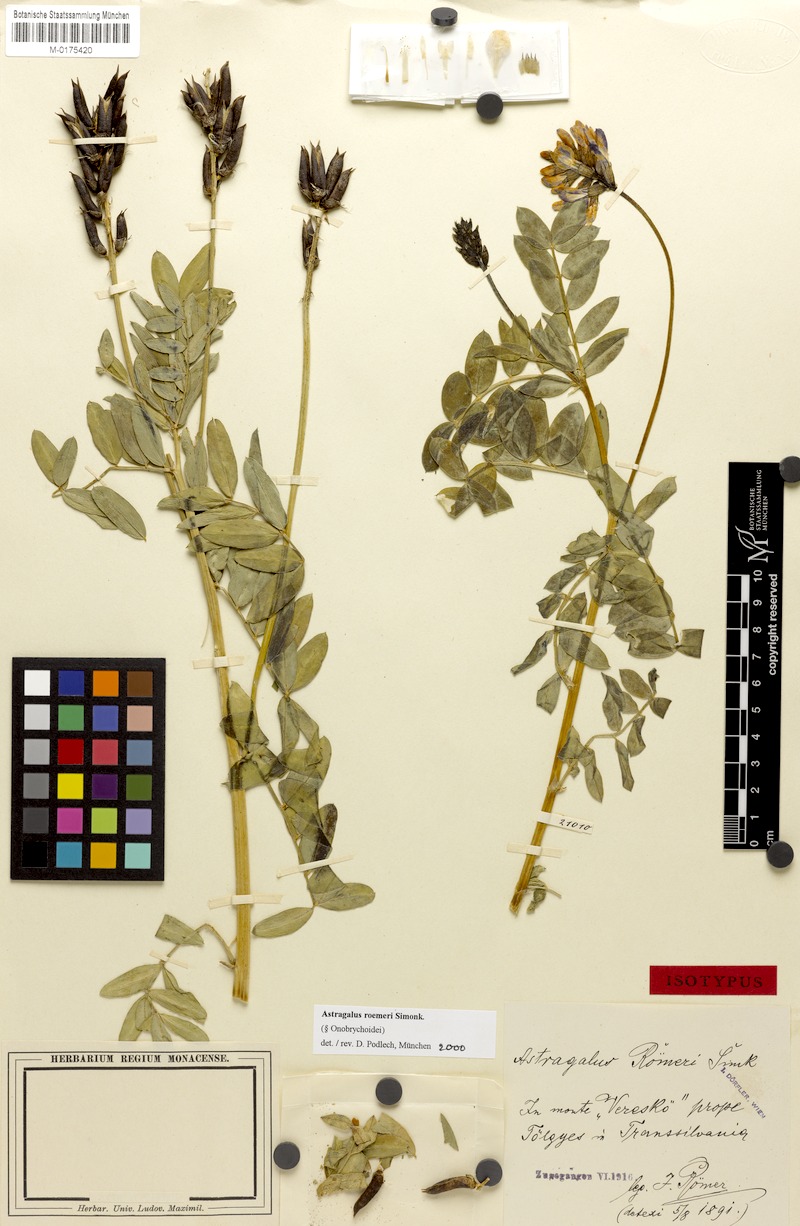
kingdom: Plantae
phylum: Tracheophyta
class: Magnoliopsida
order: Fabales
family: Fabaceae
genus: Astragalus
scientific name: Astragalus roemeri
